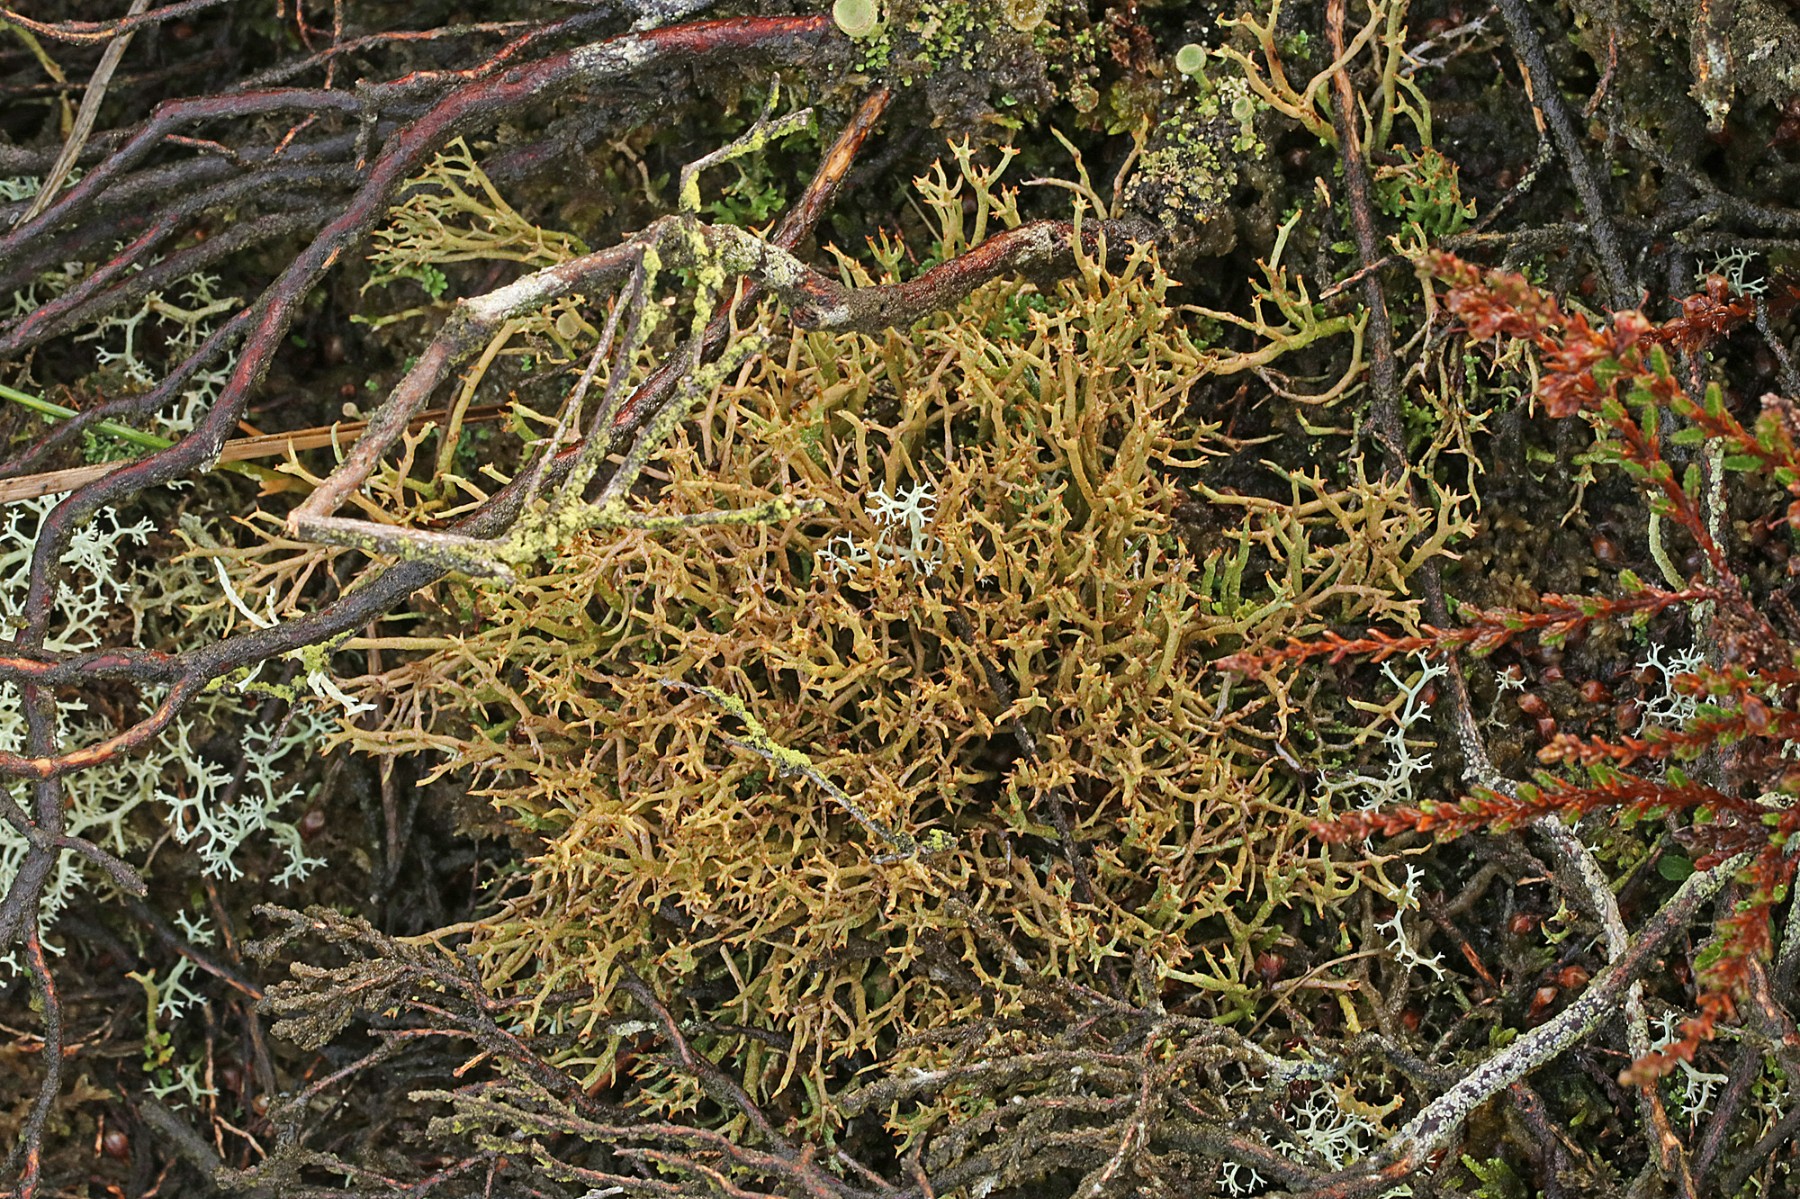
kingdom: Fungi
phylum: Ascomycota
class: Lecanoromycetes
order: Lecanorales
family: Cladoniaceae
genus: Cladonia
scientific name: Cladonia crispata
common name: takket bægerlav
